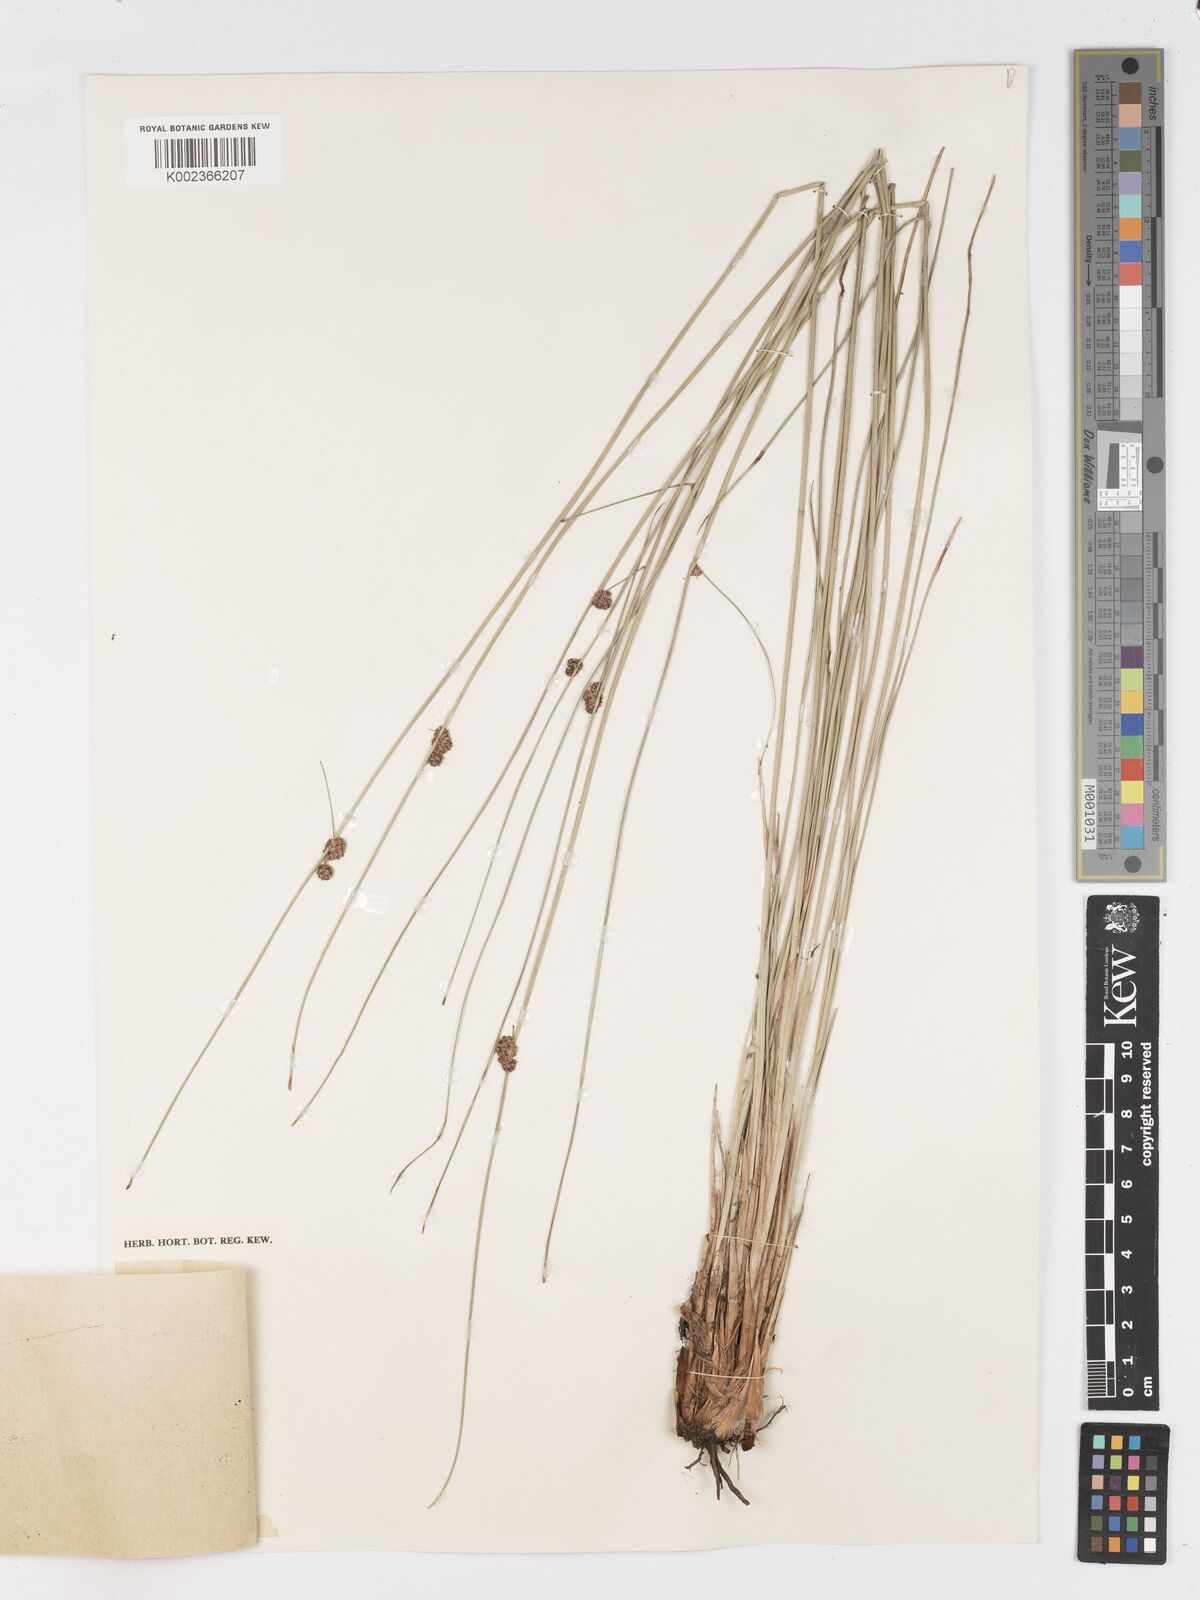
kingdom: Plantae
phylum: Tracheophyta
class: Liliopsida
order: Poales
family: Cyperaceae
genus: Scirpoides
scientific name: Scirpoides holoschoenus
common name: Round-headed club-rush
